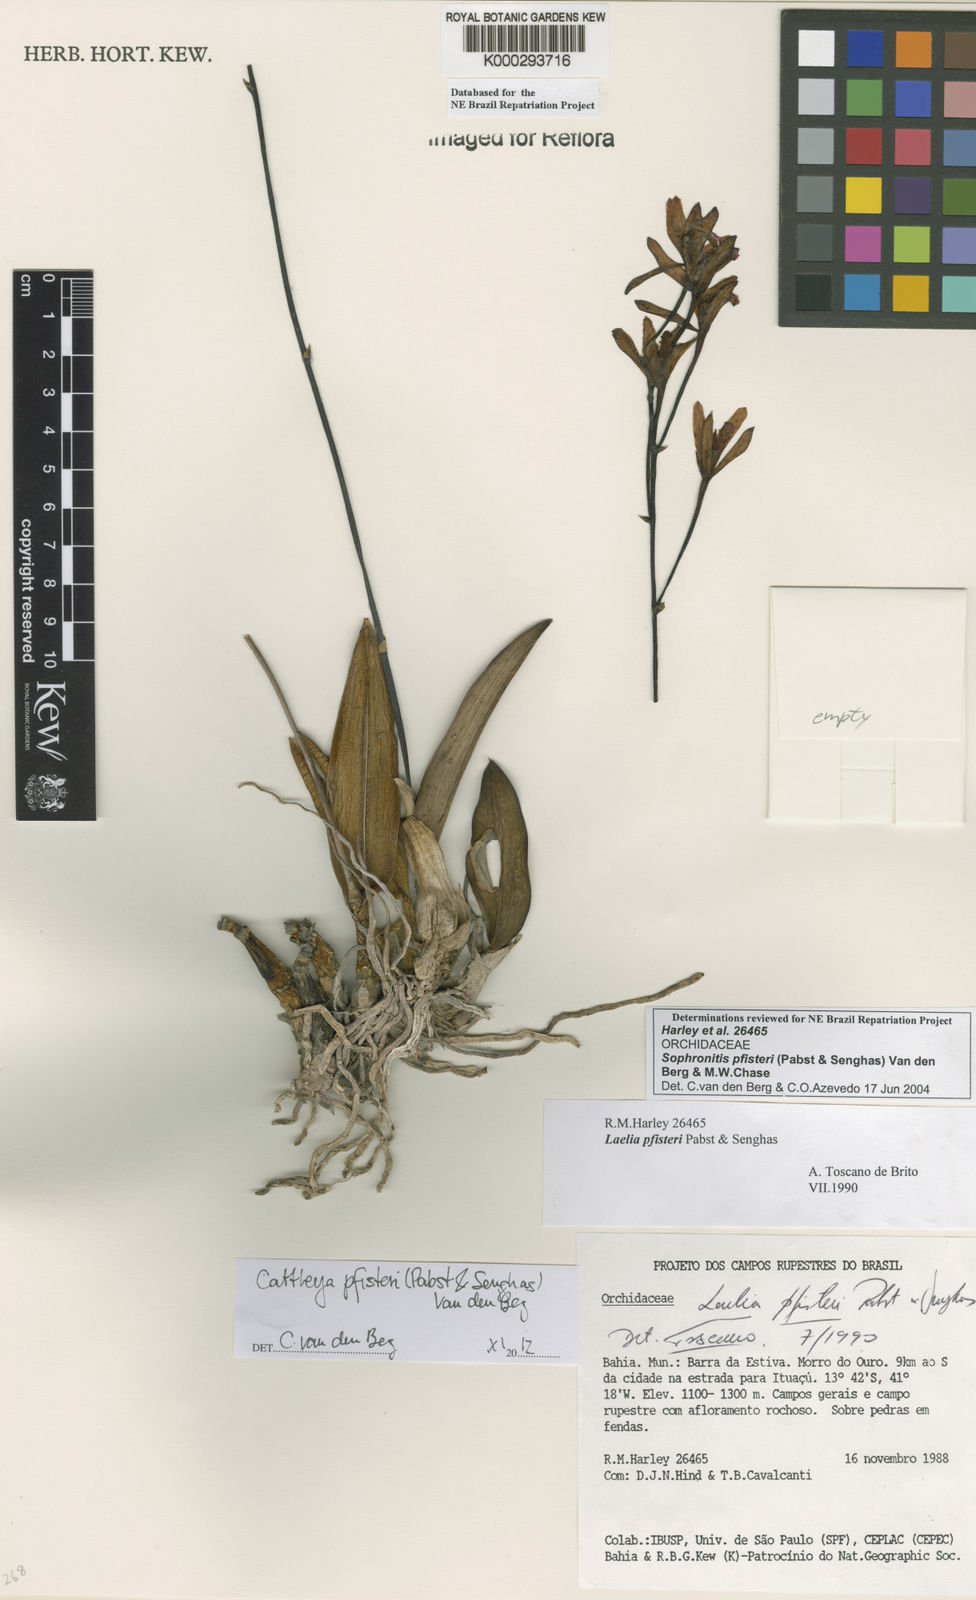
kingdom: Plantae
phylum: Tracheophyta
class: Liliopsida
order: Asparagales
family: Orchidaceae
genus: Cattleya
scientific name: Cattleya pfisteri
